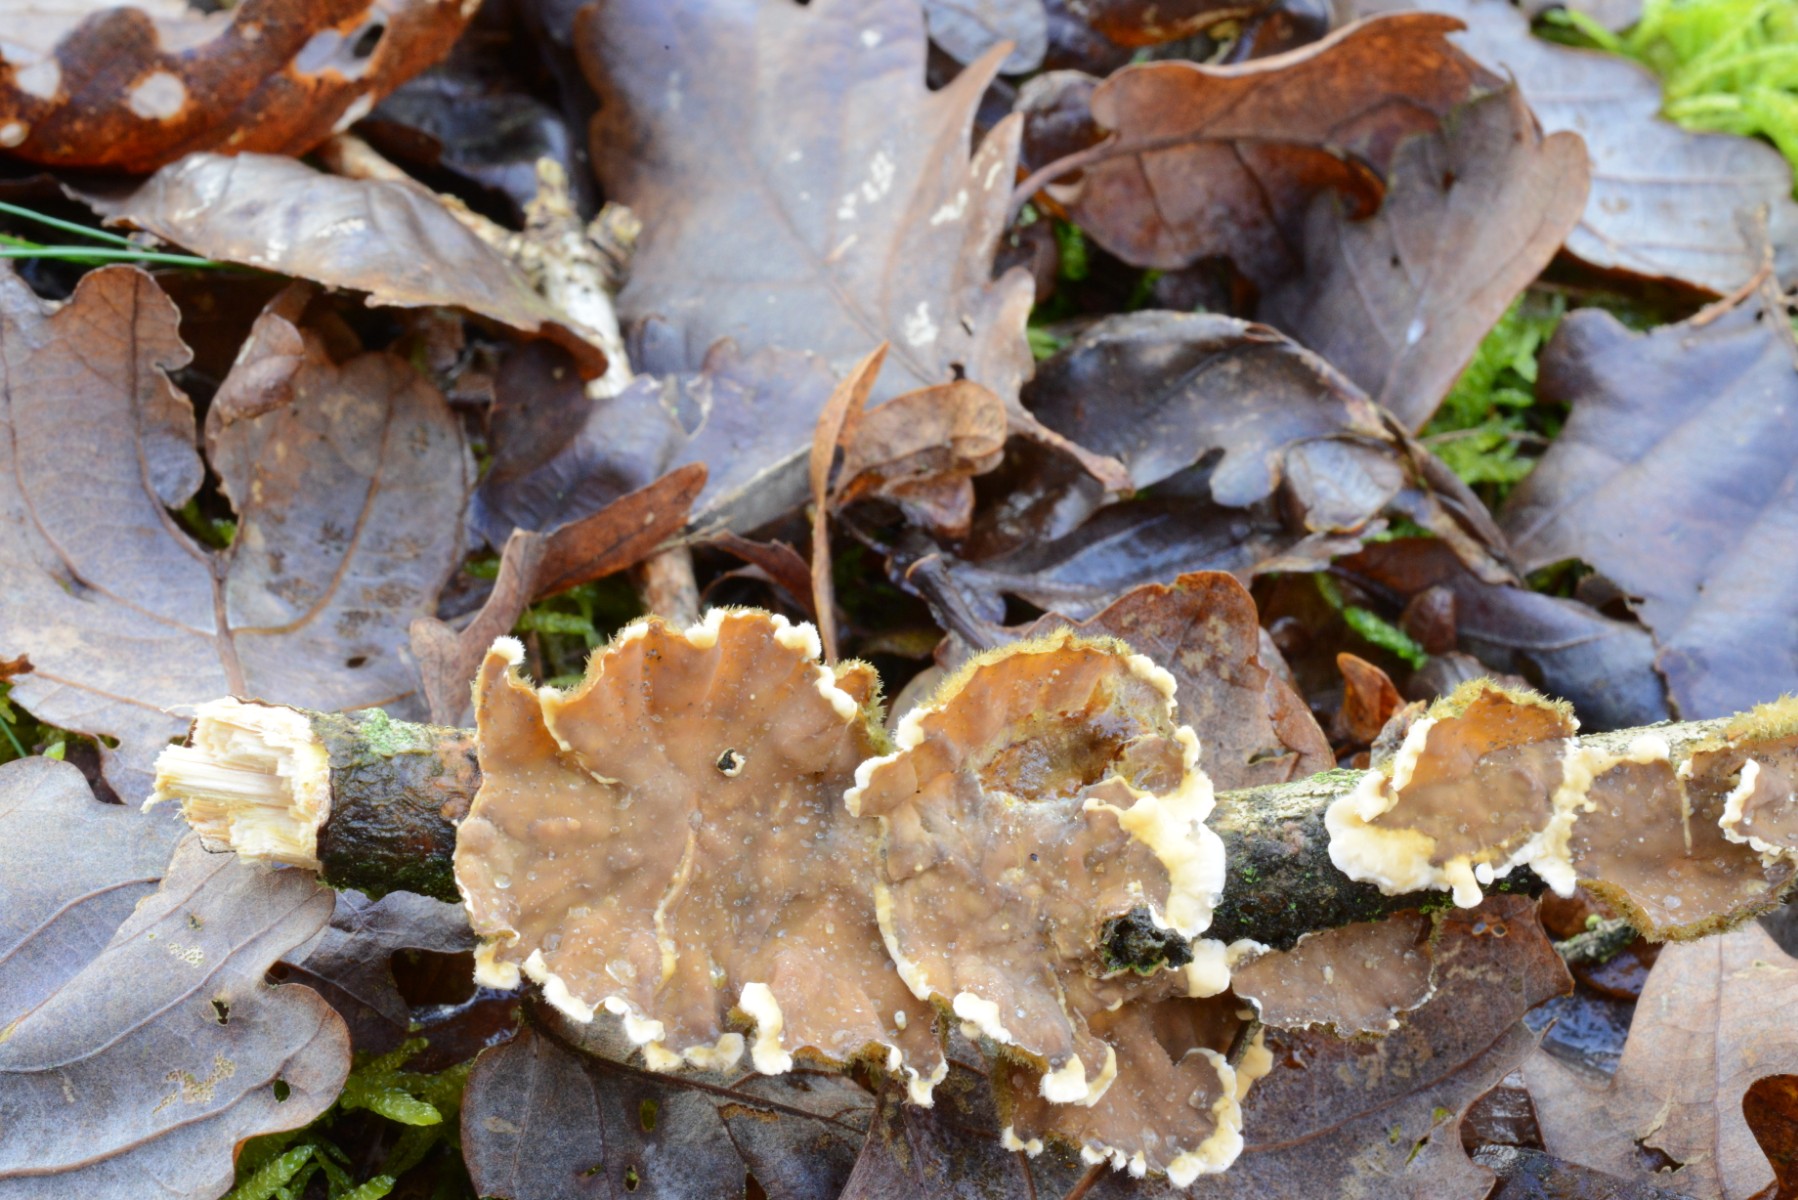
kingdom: Fungi
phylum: Basidiomycota
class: Agaricomycetes
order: Russulales
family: Stereaceae
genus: Stereum
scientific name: Stereum hirsutum
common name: håret lædersvamp
